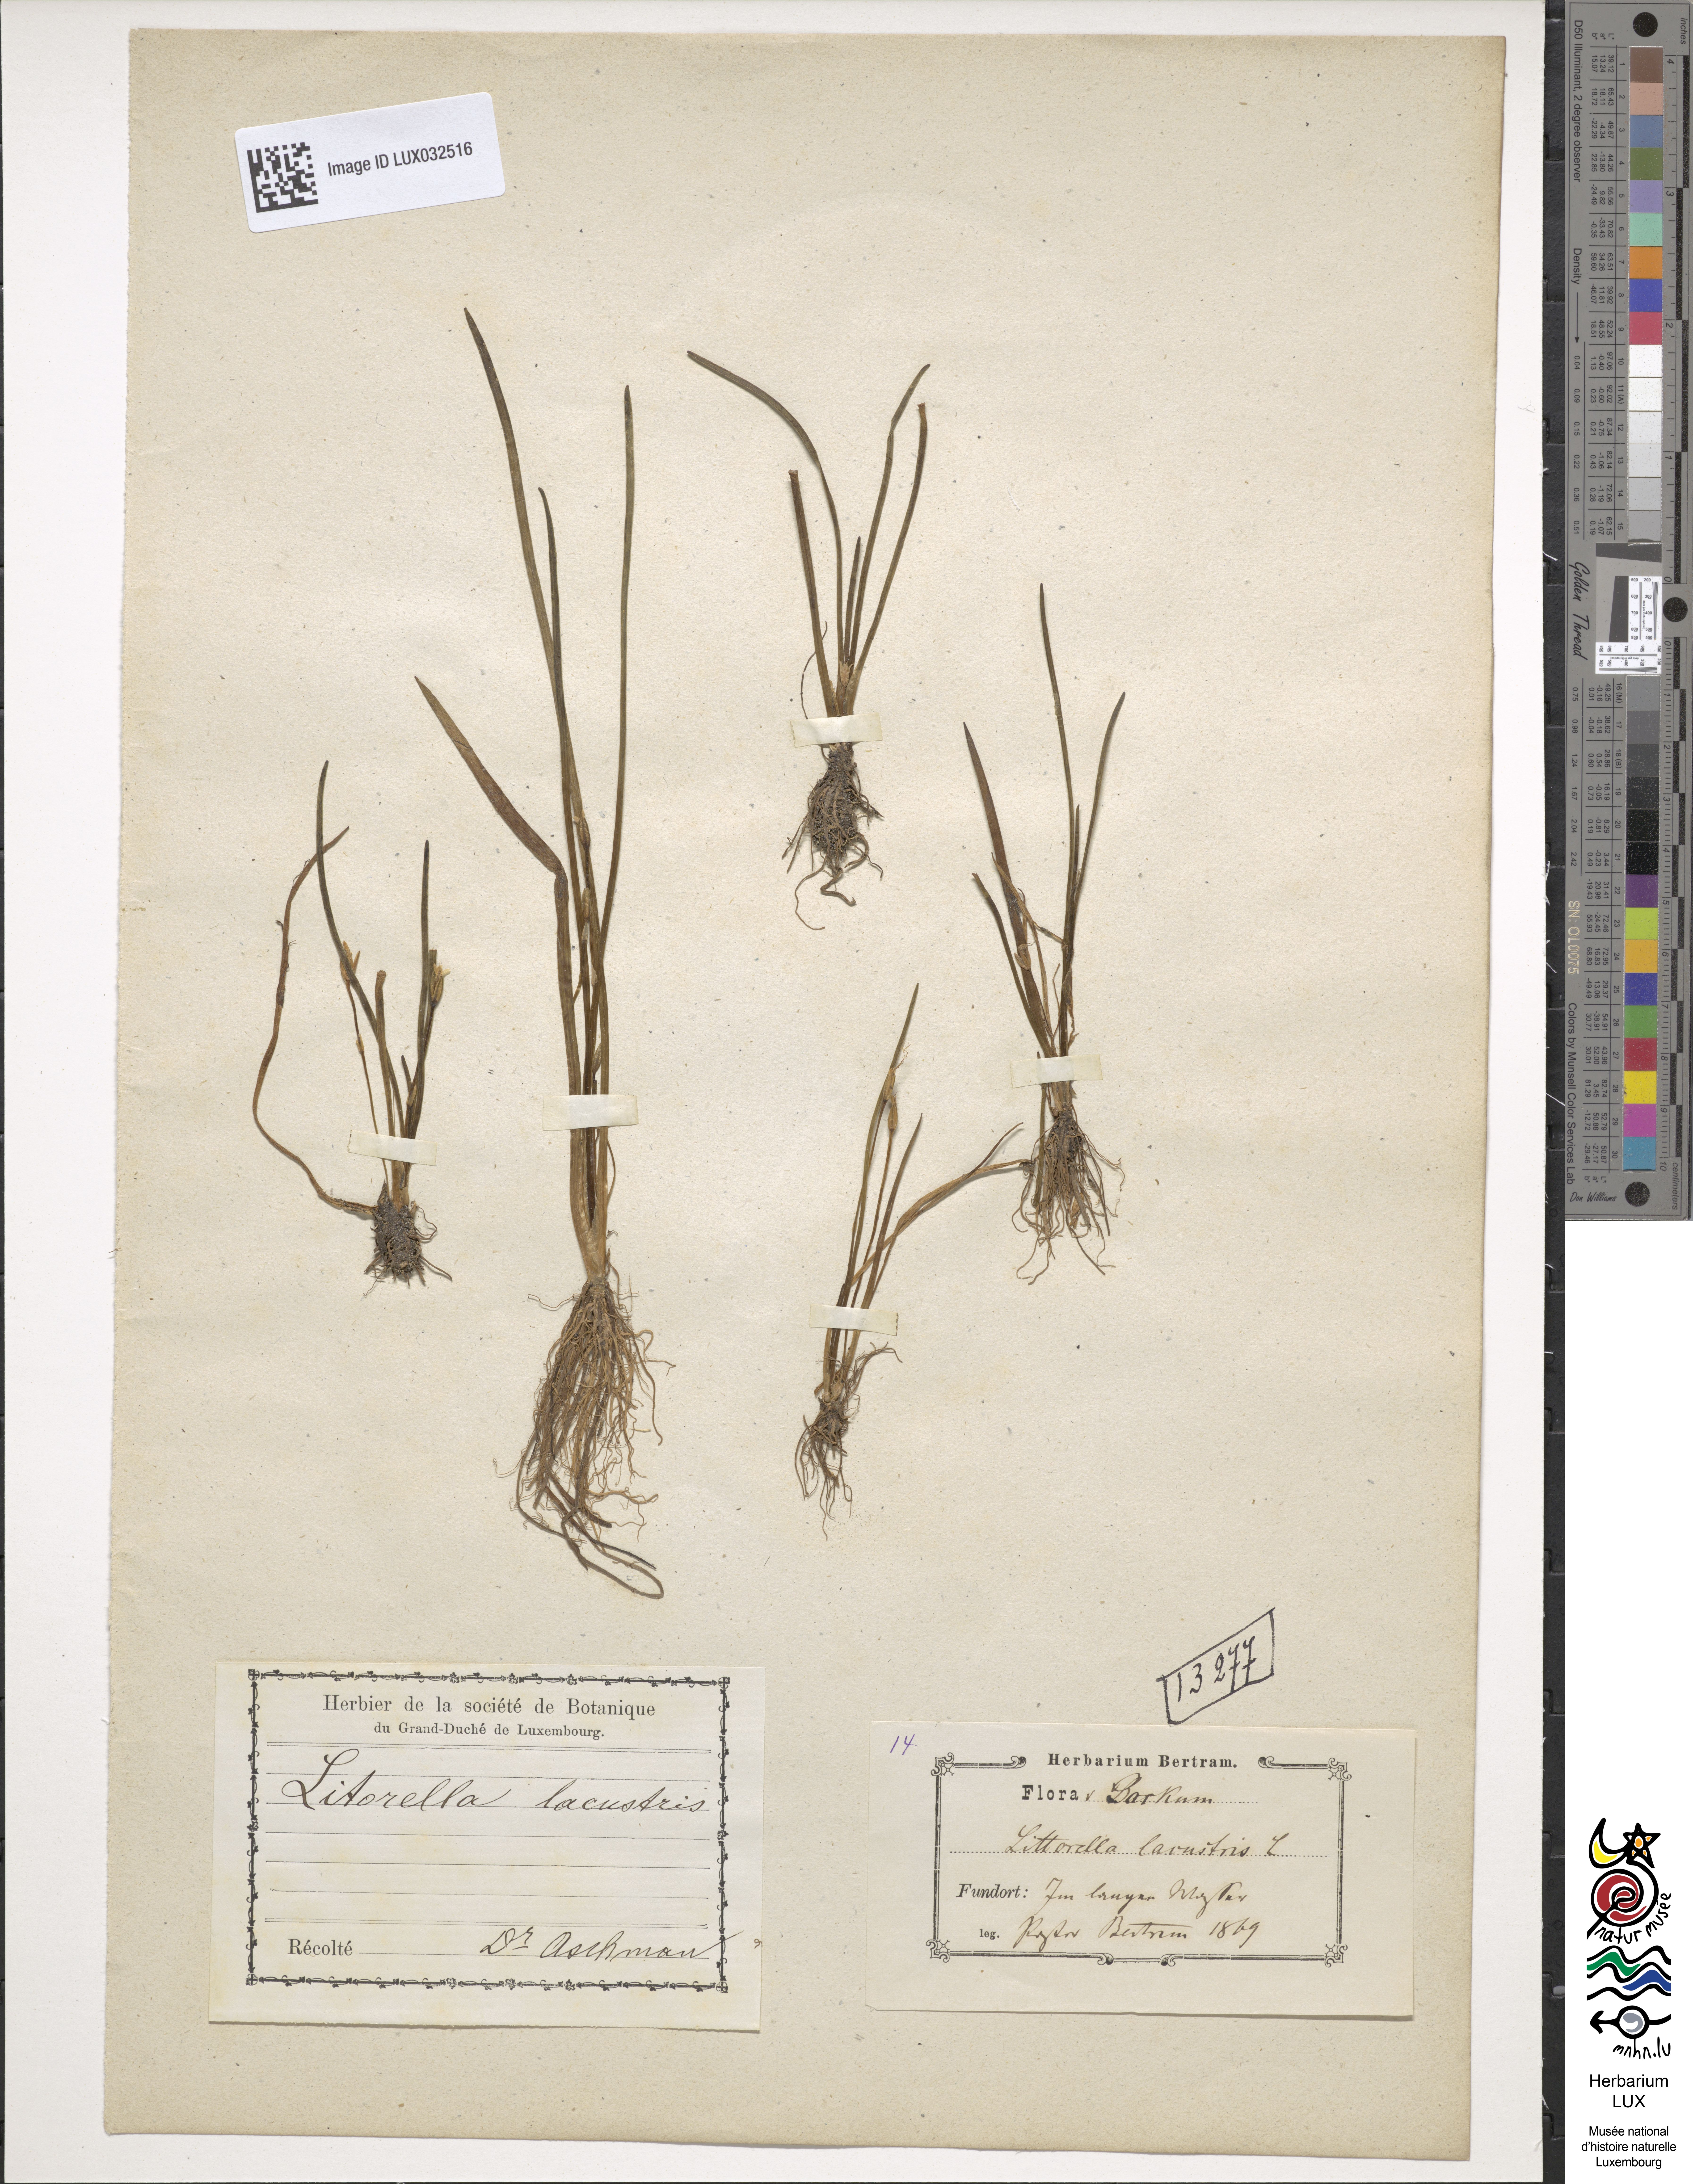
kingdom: Plantae
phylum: Tracheophyta
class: Magnoliopsida
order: Lamiales
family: Plantaginaceae
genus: Littorella
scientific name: Littorella uniflora
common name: Shoreweed
